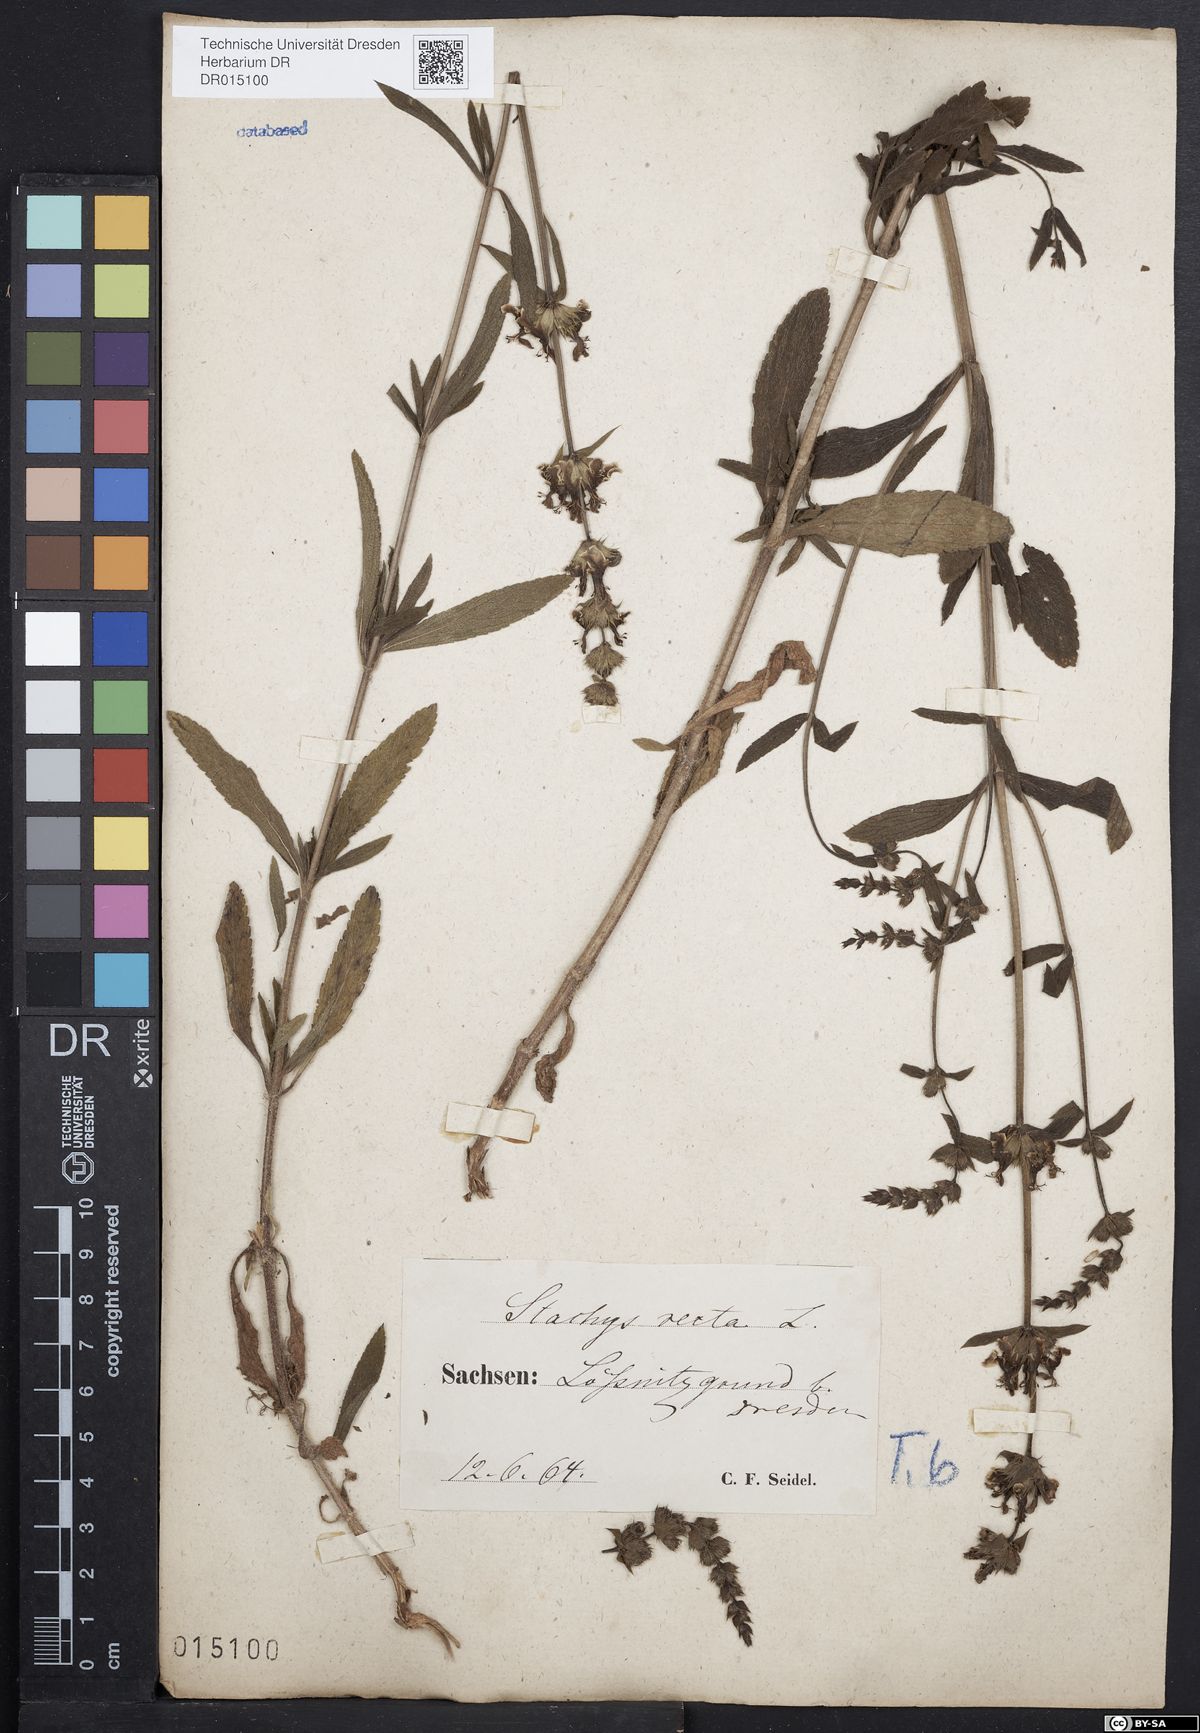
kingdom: Plantae
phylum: Tracheophyta
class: Magnoliopsida
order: Lamiales
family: Lamiaceae
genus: Stachys
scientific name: Stachys recta
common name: Perennial yellow-woundwort
